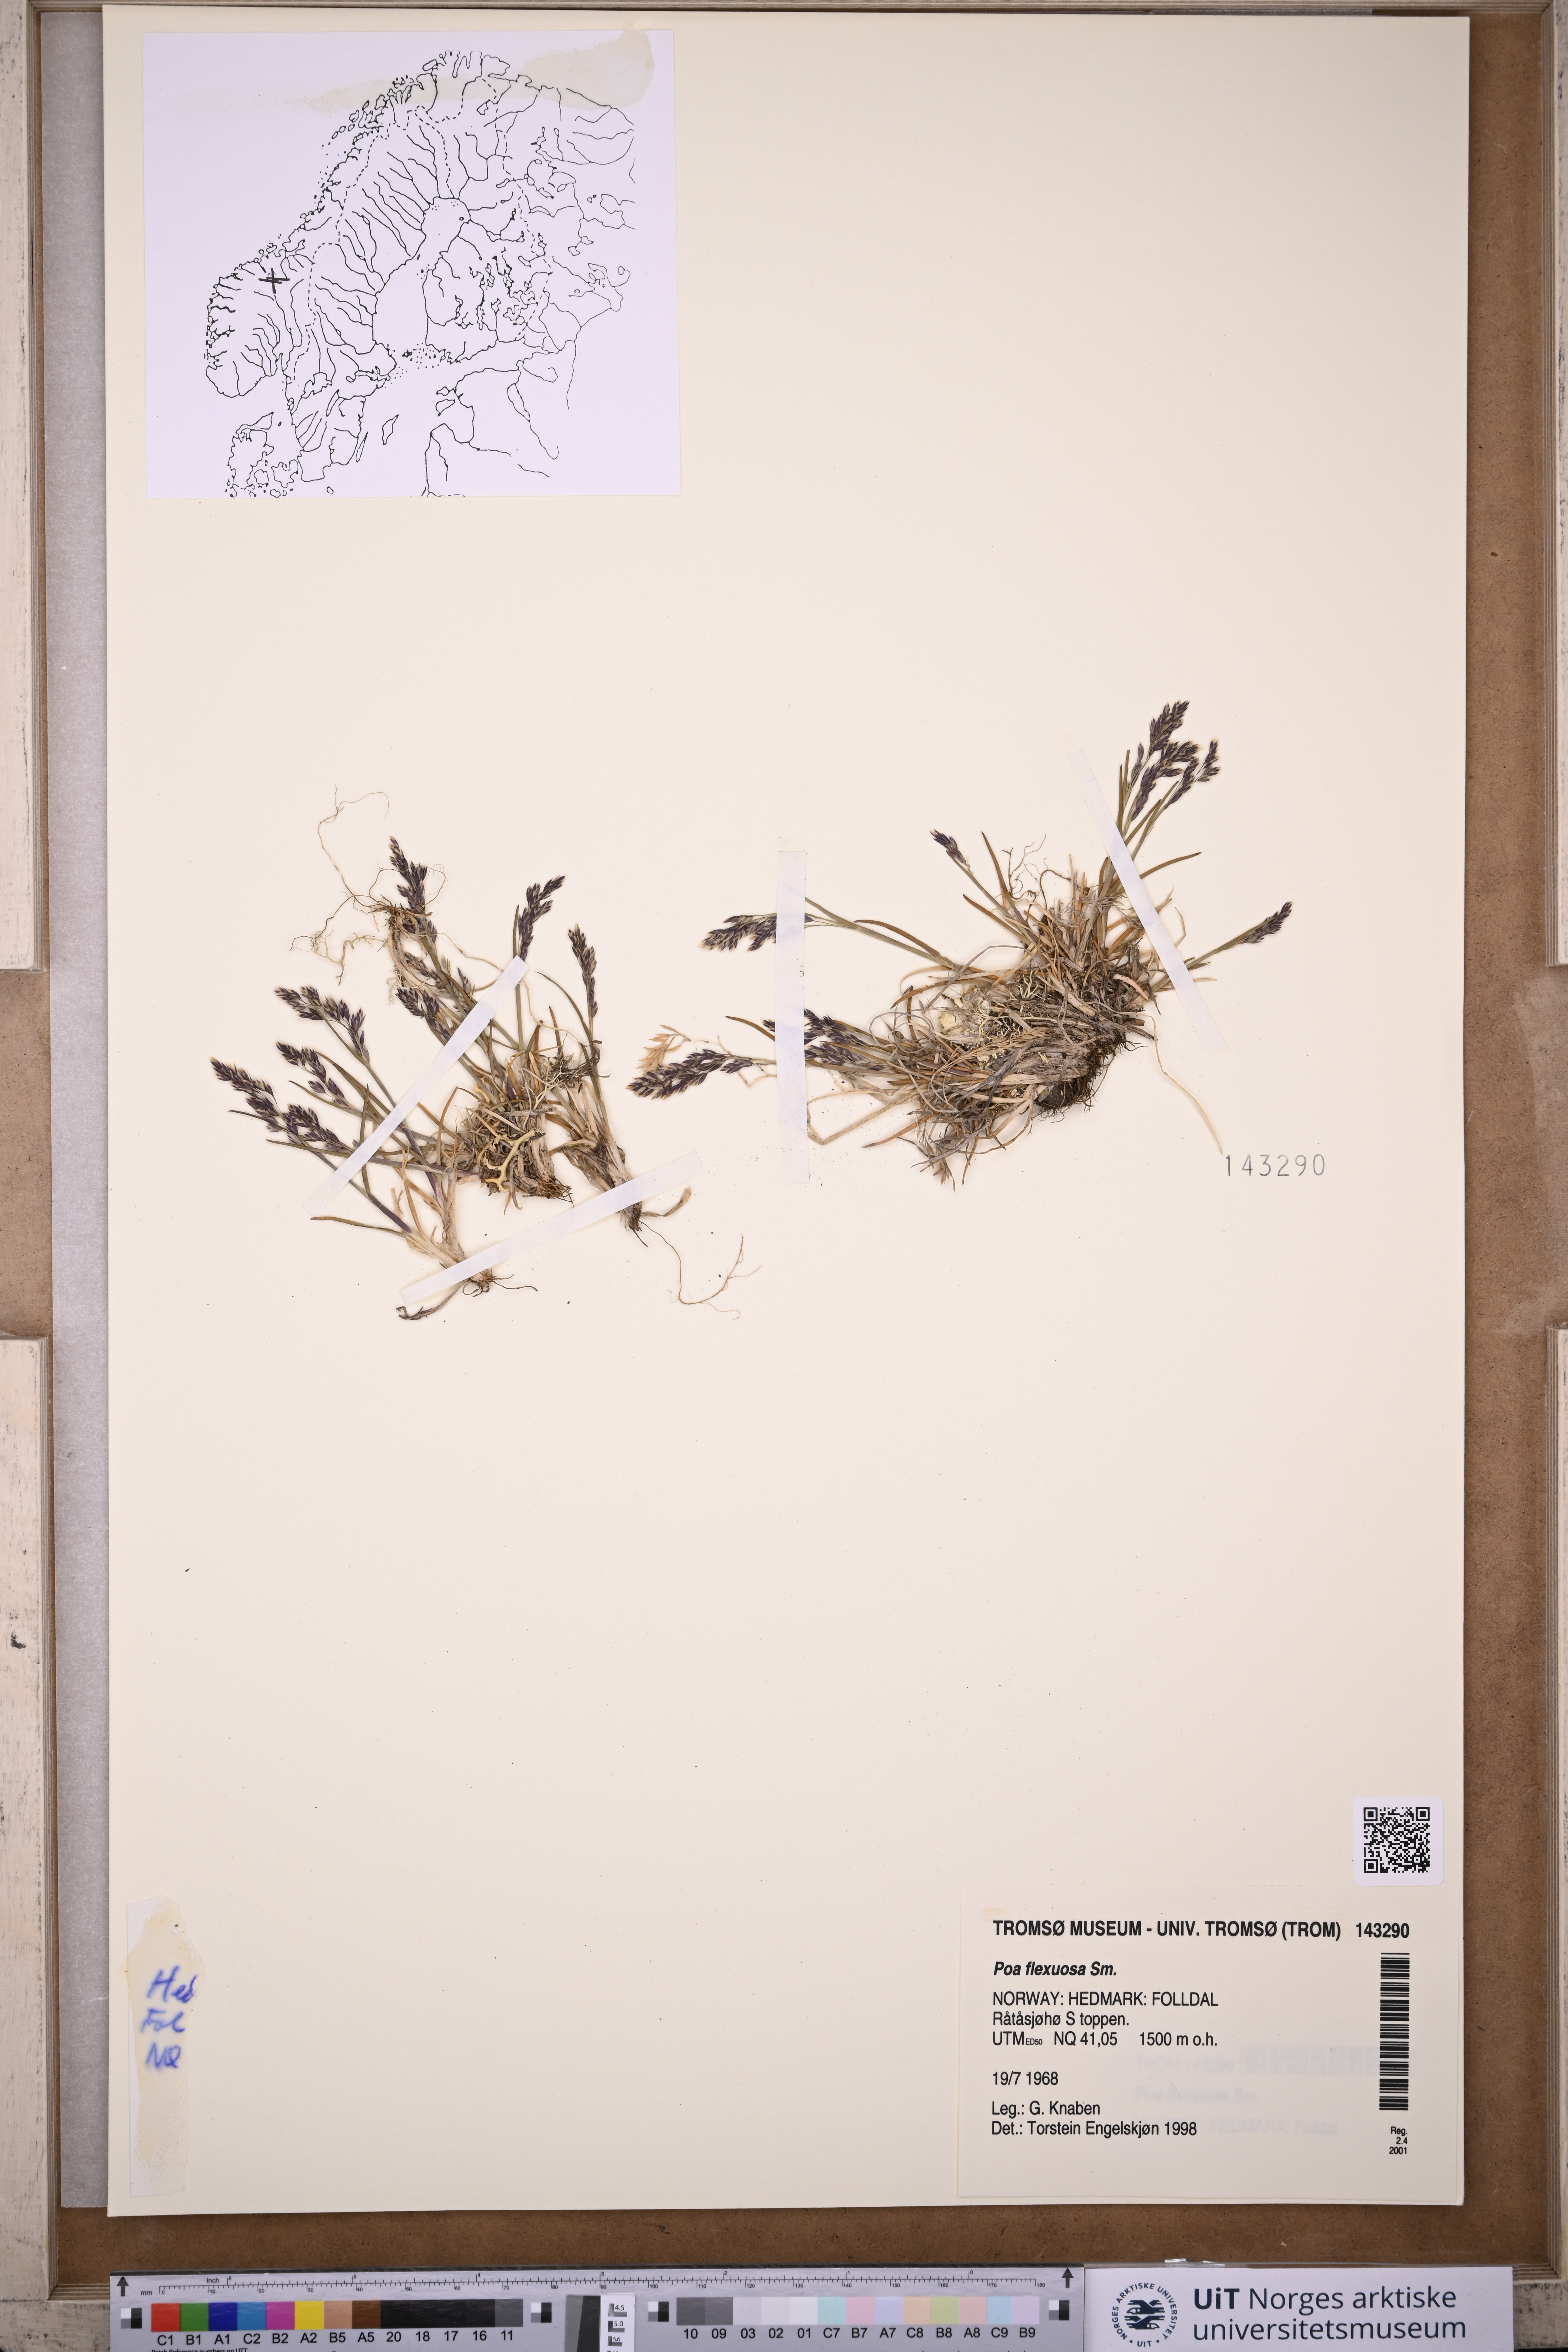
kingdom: Plantae
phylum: Tracheophyta
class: Liliopsida
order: Poales
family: Poaceae
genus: Poa
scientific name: Poa flexuosa
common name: Wavy meadow-grass
